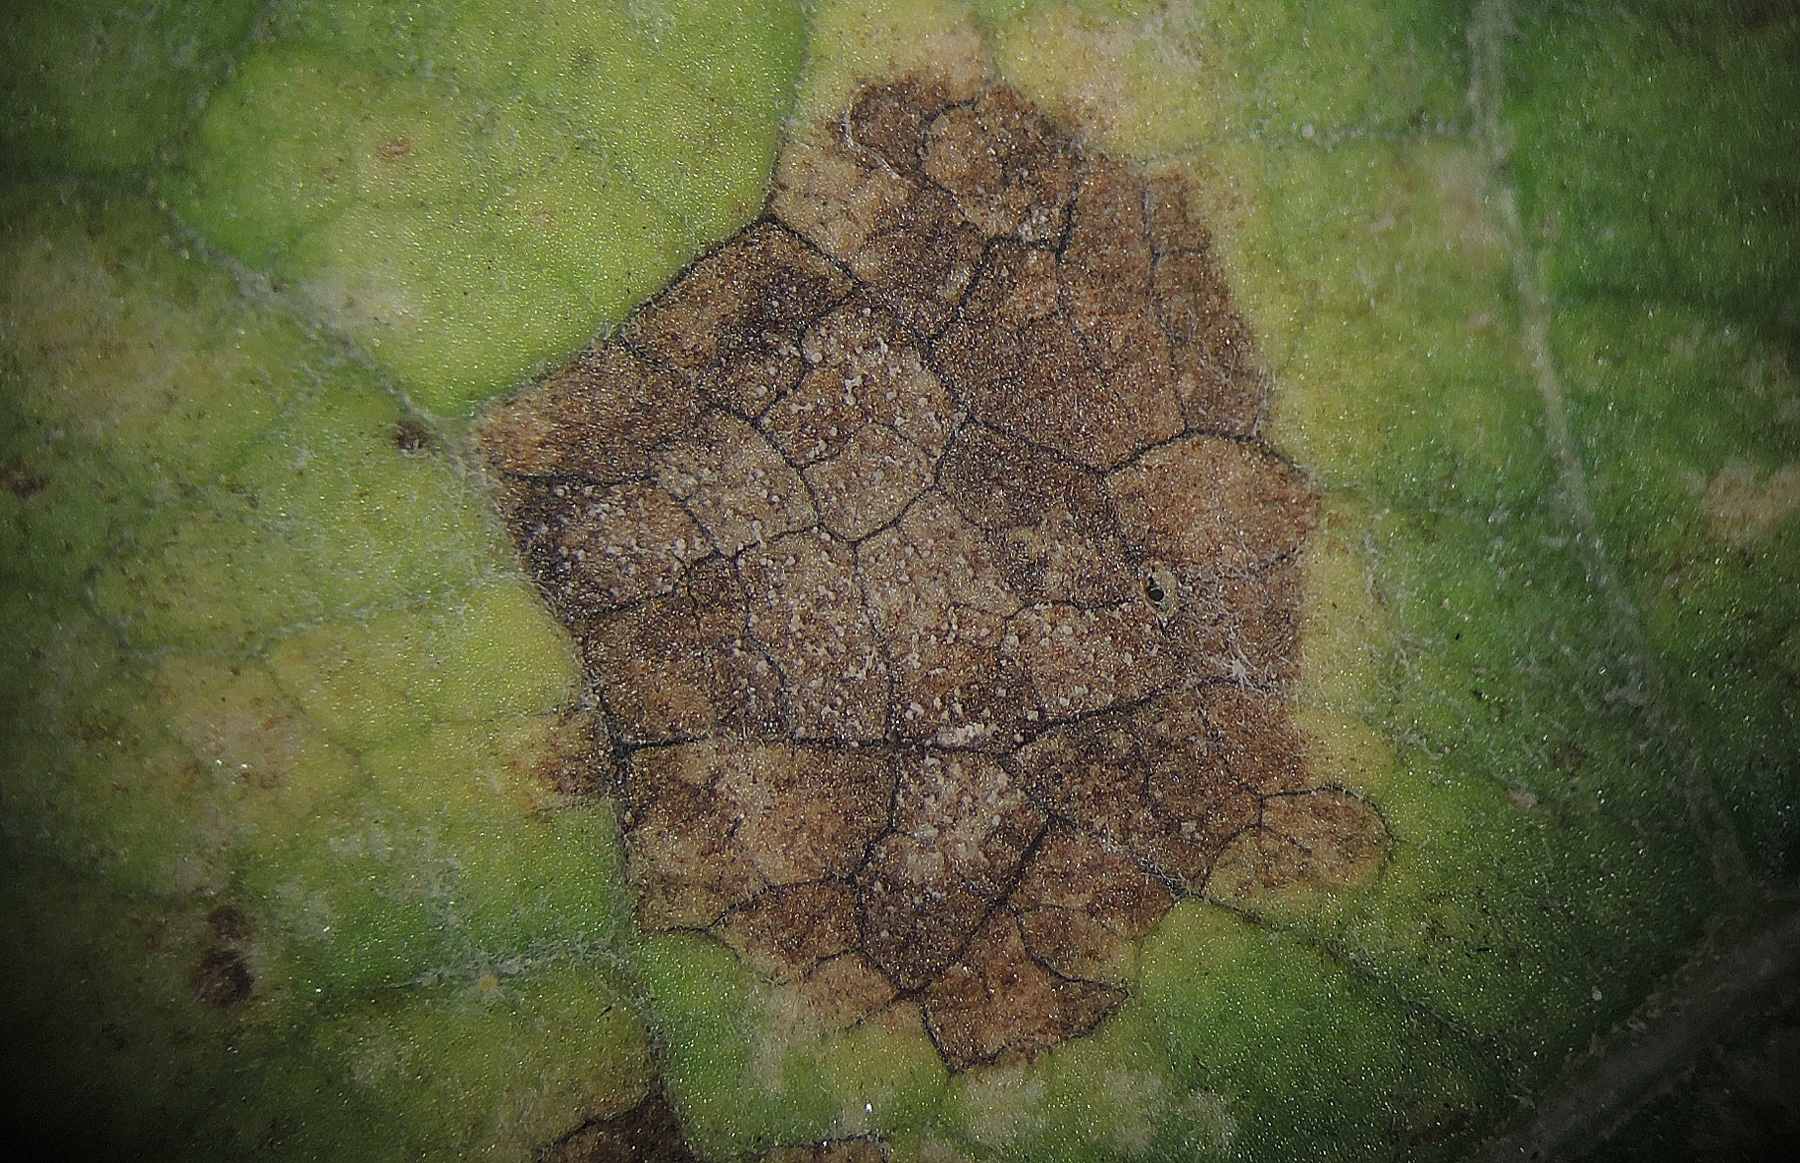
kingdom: Fungi
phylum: Ascomycota
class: Dothideomycetes
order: Mycosphaerellales
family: Mycosphaerellaceae
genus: Ramularia
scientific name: Ramularia abscondita
